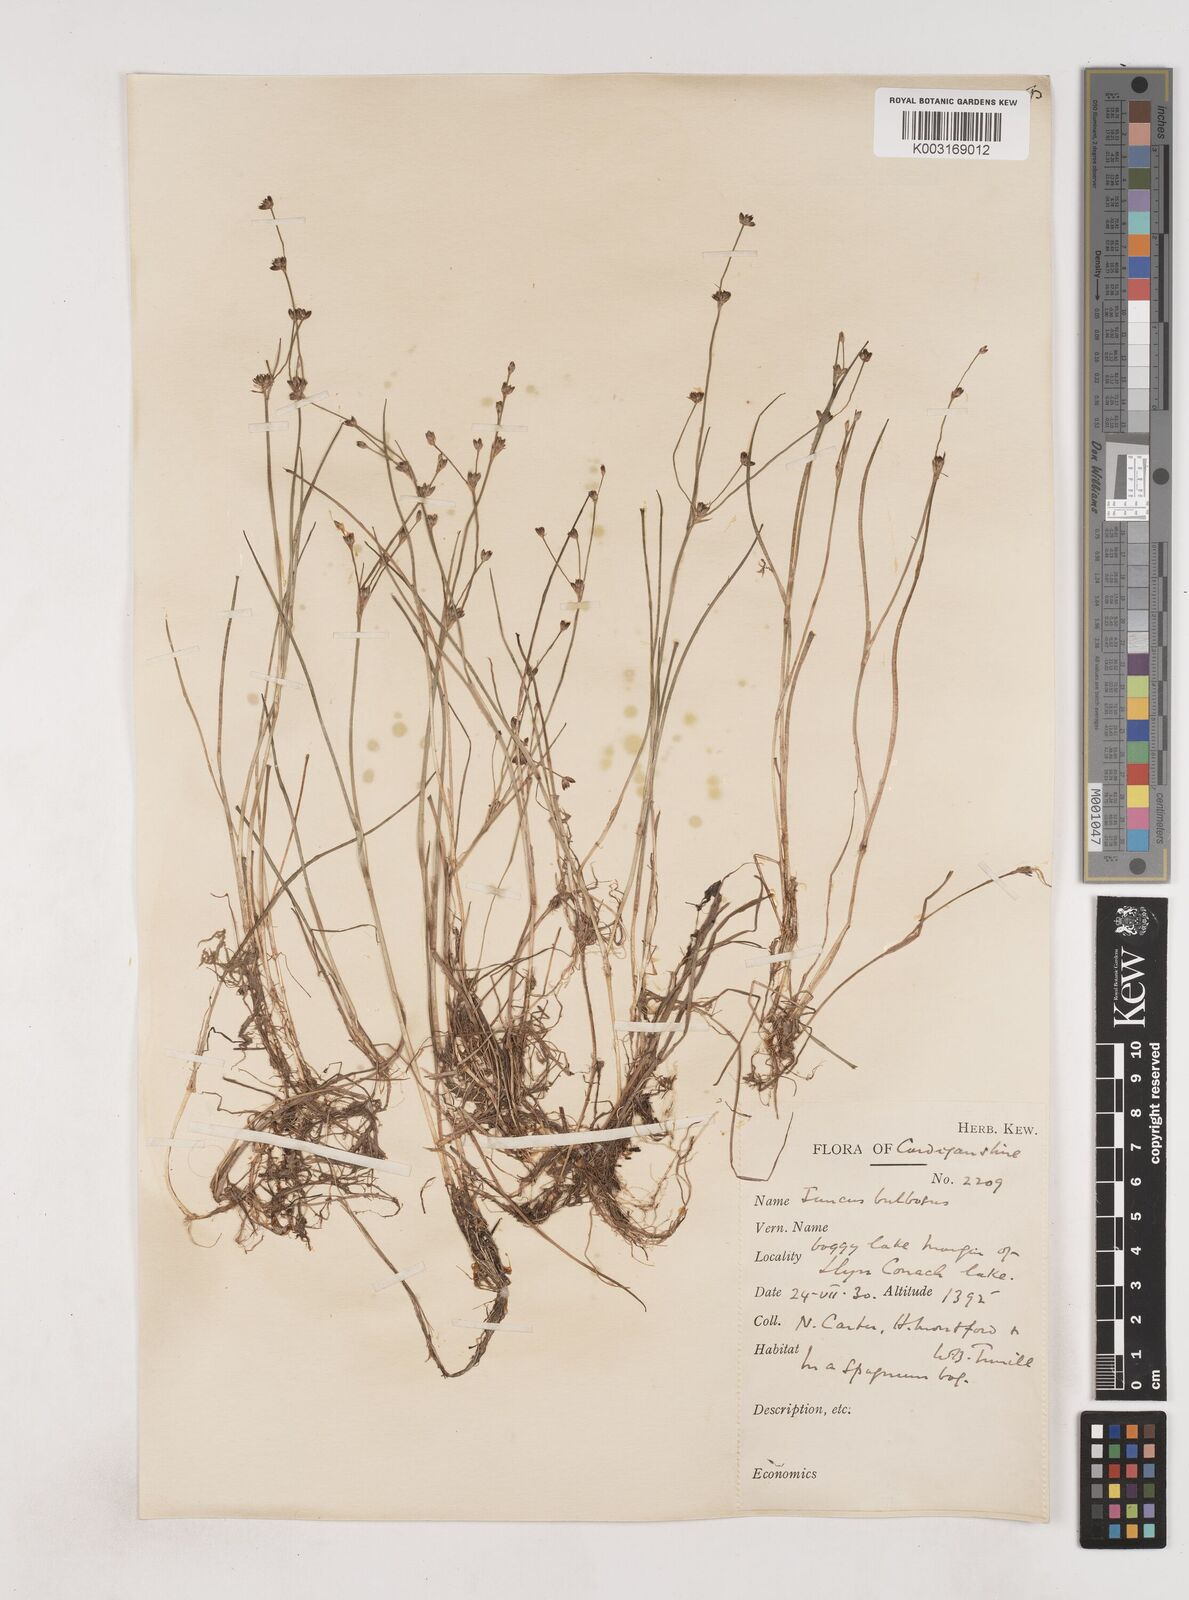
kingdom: Plantae
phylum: Tracheophyta
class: Liliopsida
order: Poales
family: Juncaceae
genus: Juncus
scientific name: Juncus bulbosus
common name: Bulbous rush
